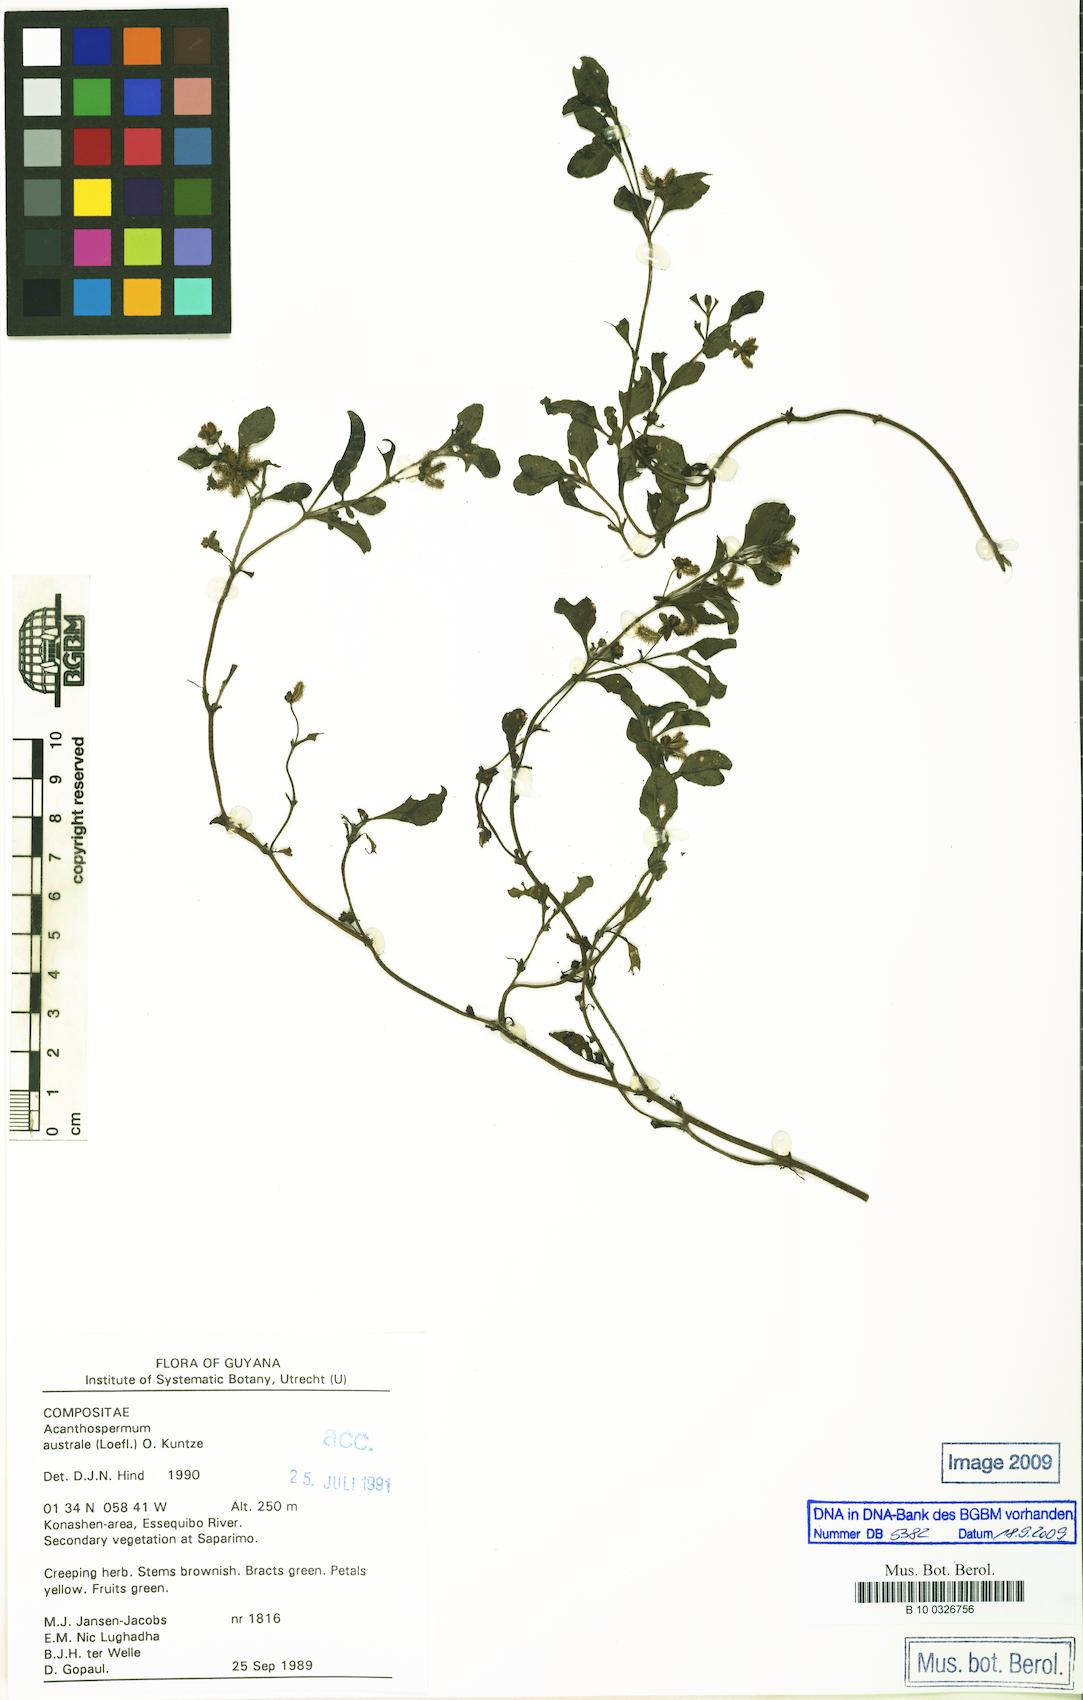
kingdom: Plantae
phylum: Tracheophyta
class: Magnoliopsida
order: Asterales
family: Asteraceae
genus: Acanthospermum
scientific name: Acanthospermum australe
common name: Paraguayan starbur
